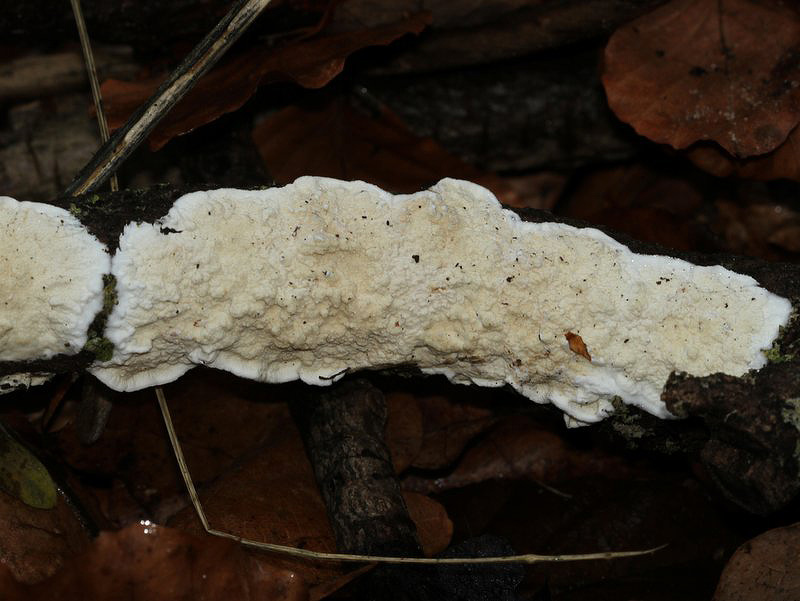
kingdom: Fungi
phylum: Basidiomycota
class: Agaricomycetes
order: Polyporales
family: Irpicaceae
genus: Byssomerulius
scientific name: Byssomerulius corium
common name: læder-åresvamp
